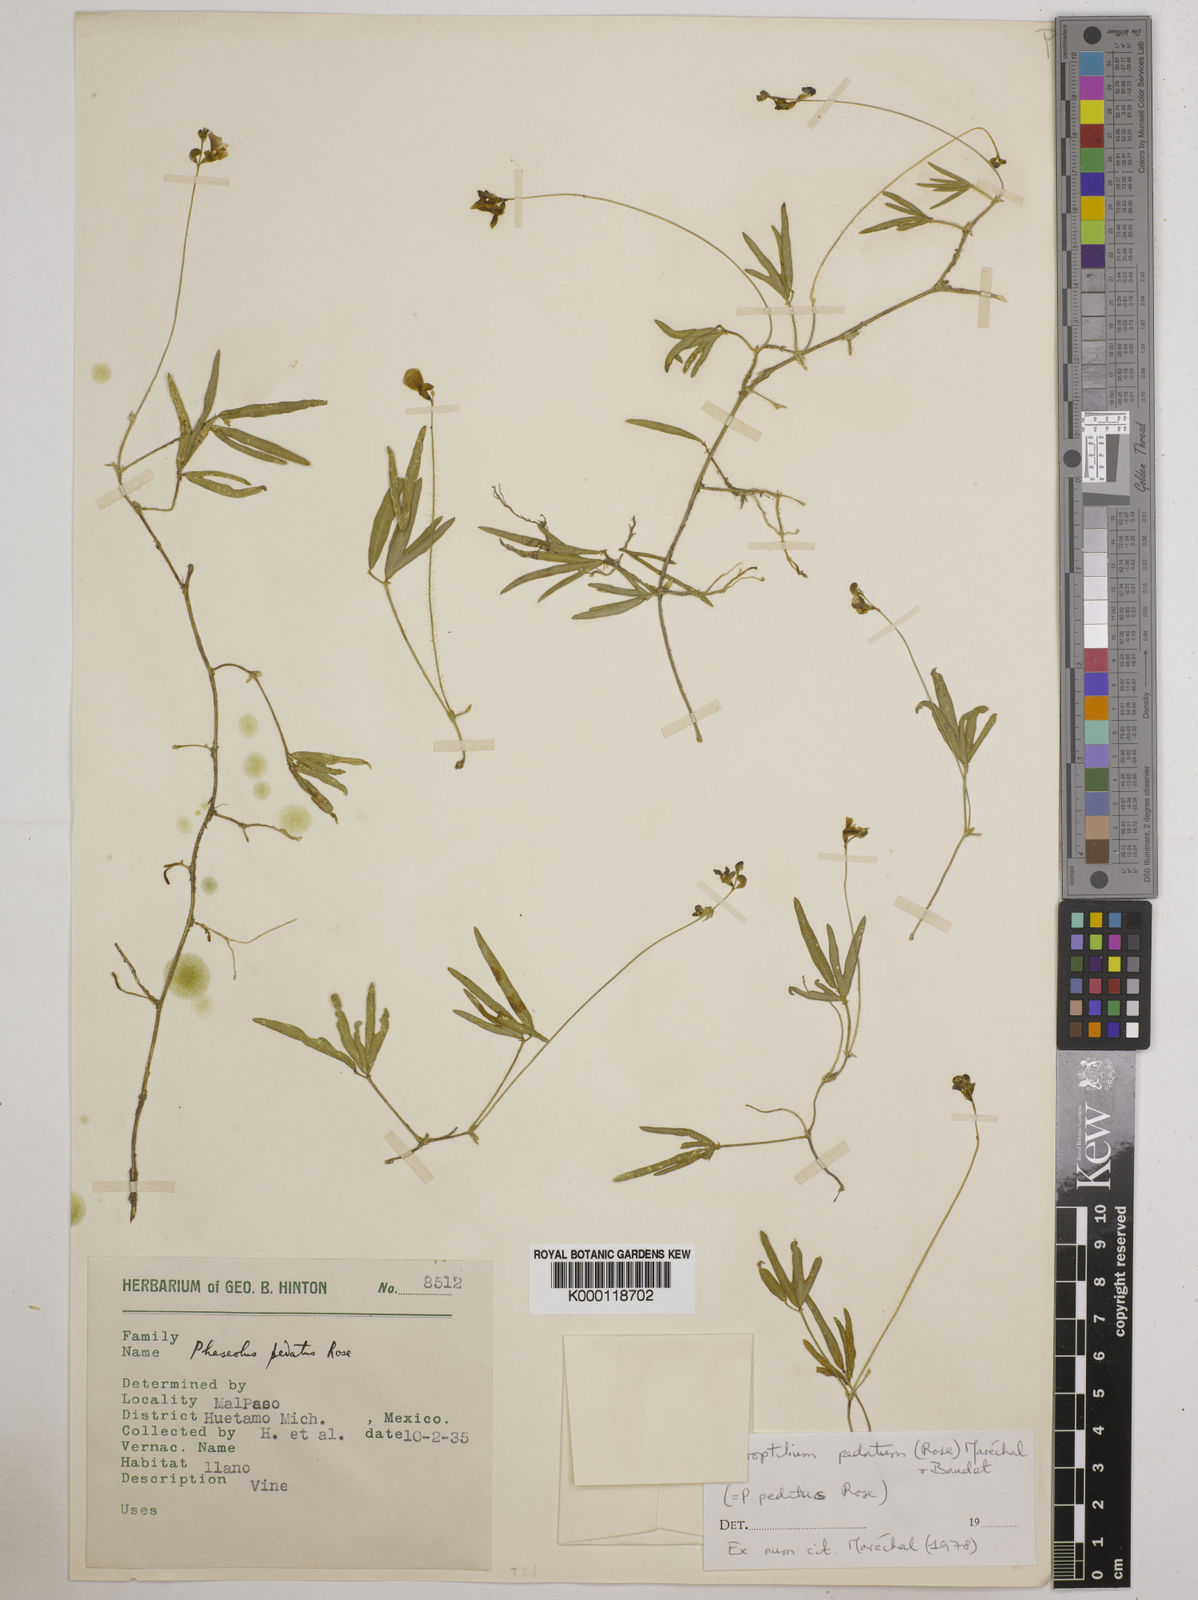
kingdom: Plantae
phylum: Tracheophyta
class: Magnoliopsida
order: Fabales
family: Fabaceae
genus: Macroptilium
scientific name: Macroptilium pedatum
